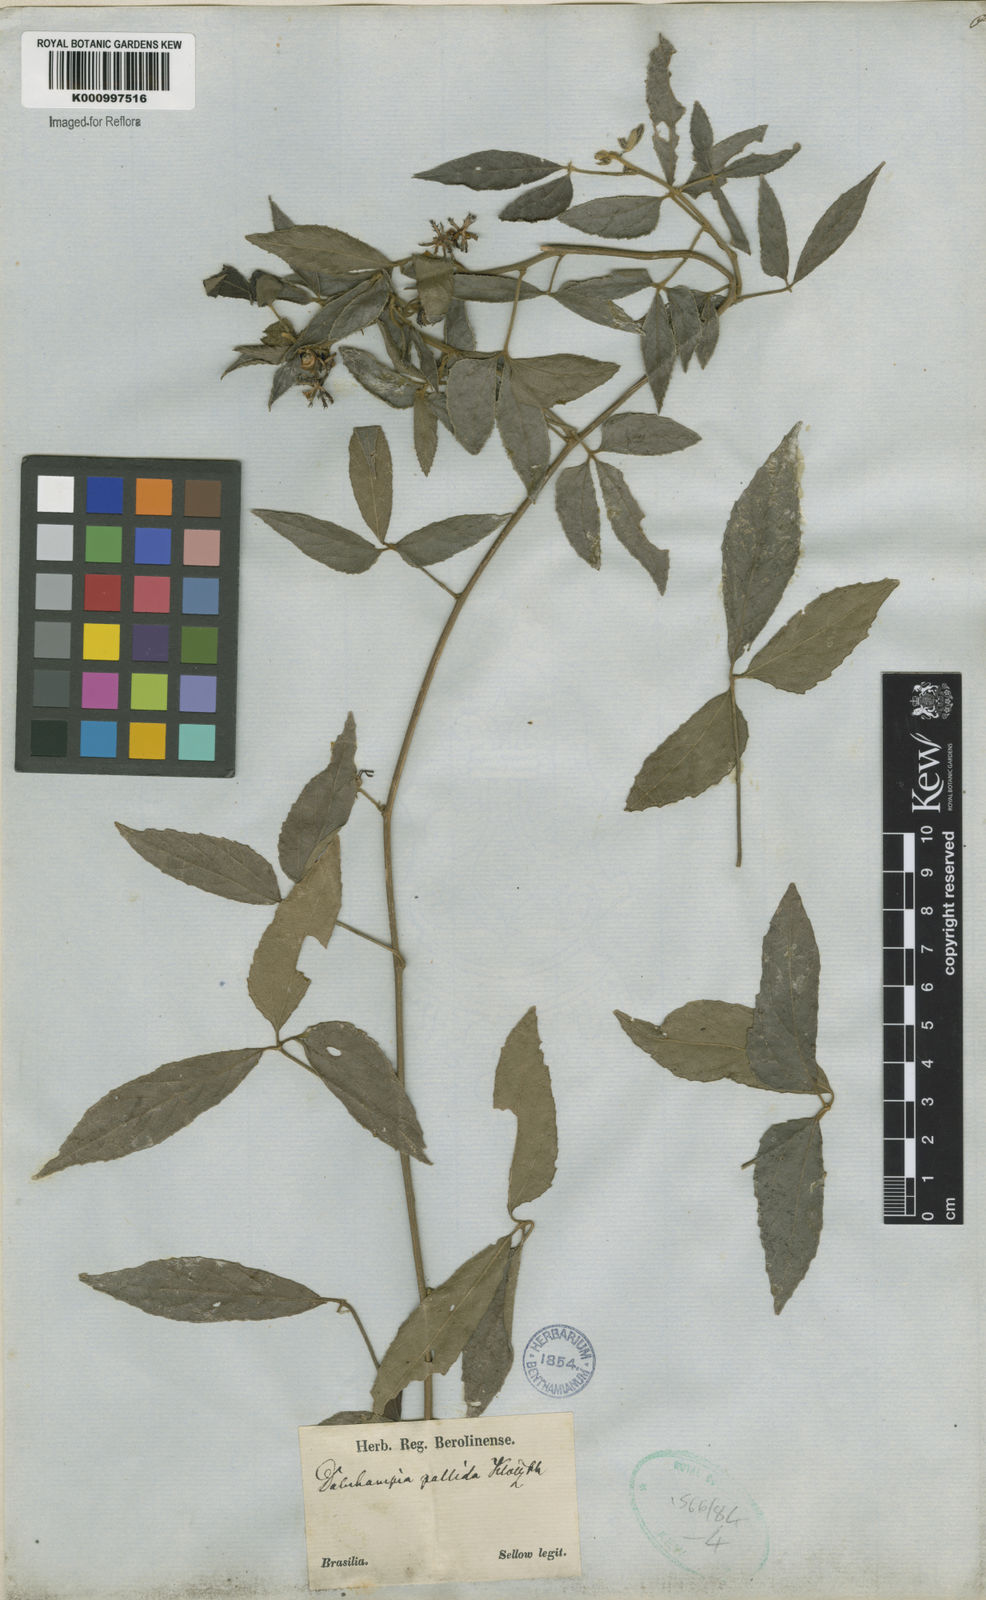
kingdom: Plantae
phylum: Tracheophyta
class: Magnoliopsida
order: Malpighiales
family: Euphorbiaceae
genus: Dalechampia
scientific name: Dalechampia
